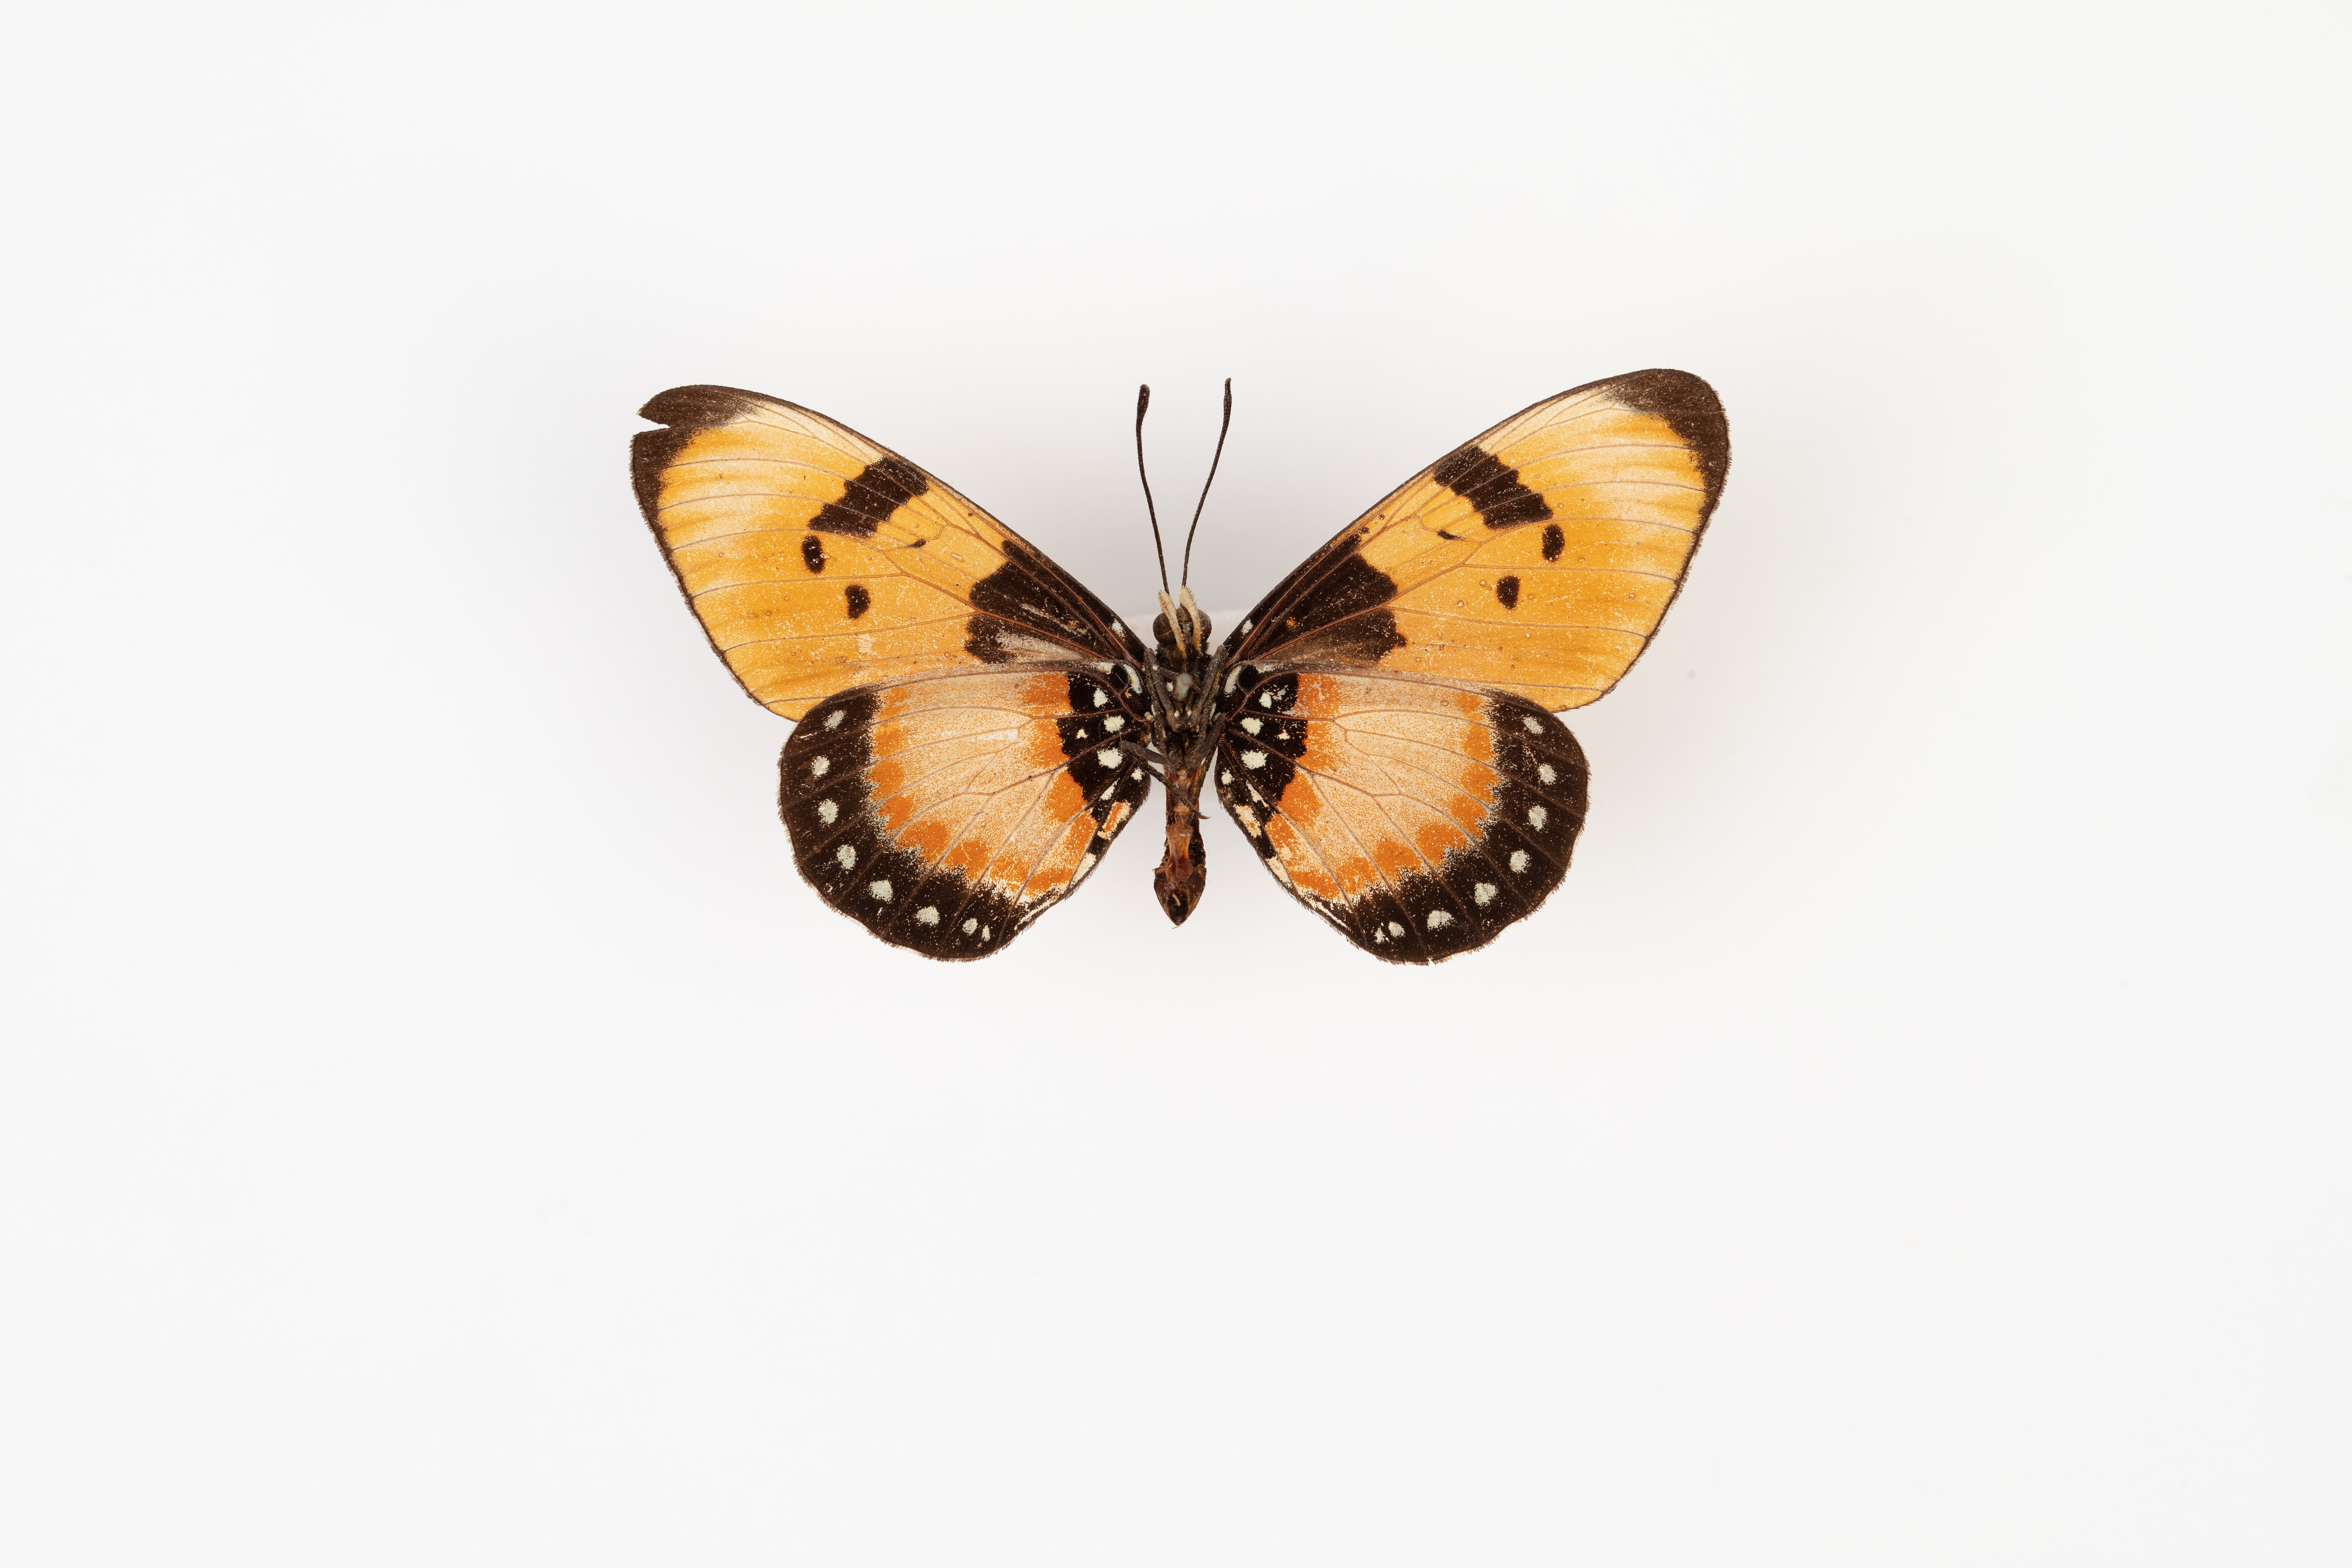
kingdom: Animalia
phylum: Arthropoda
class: Insecta
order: Lepidoptera
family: Nymphalidae
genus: Acraea
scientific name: Acraea anemosa
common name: Broad-bordered acraea
